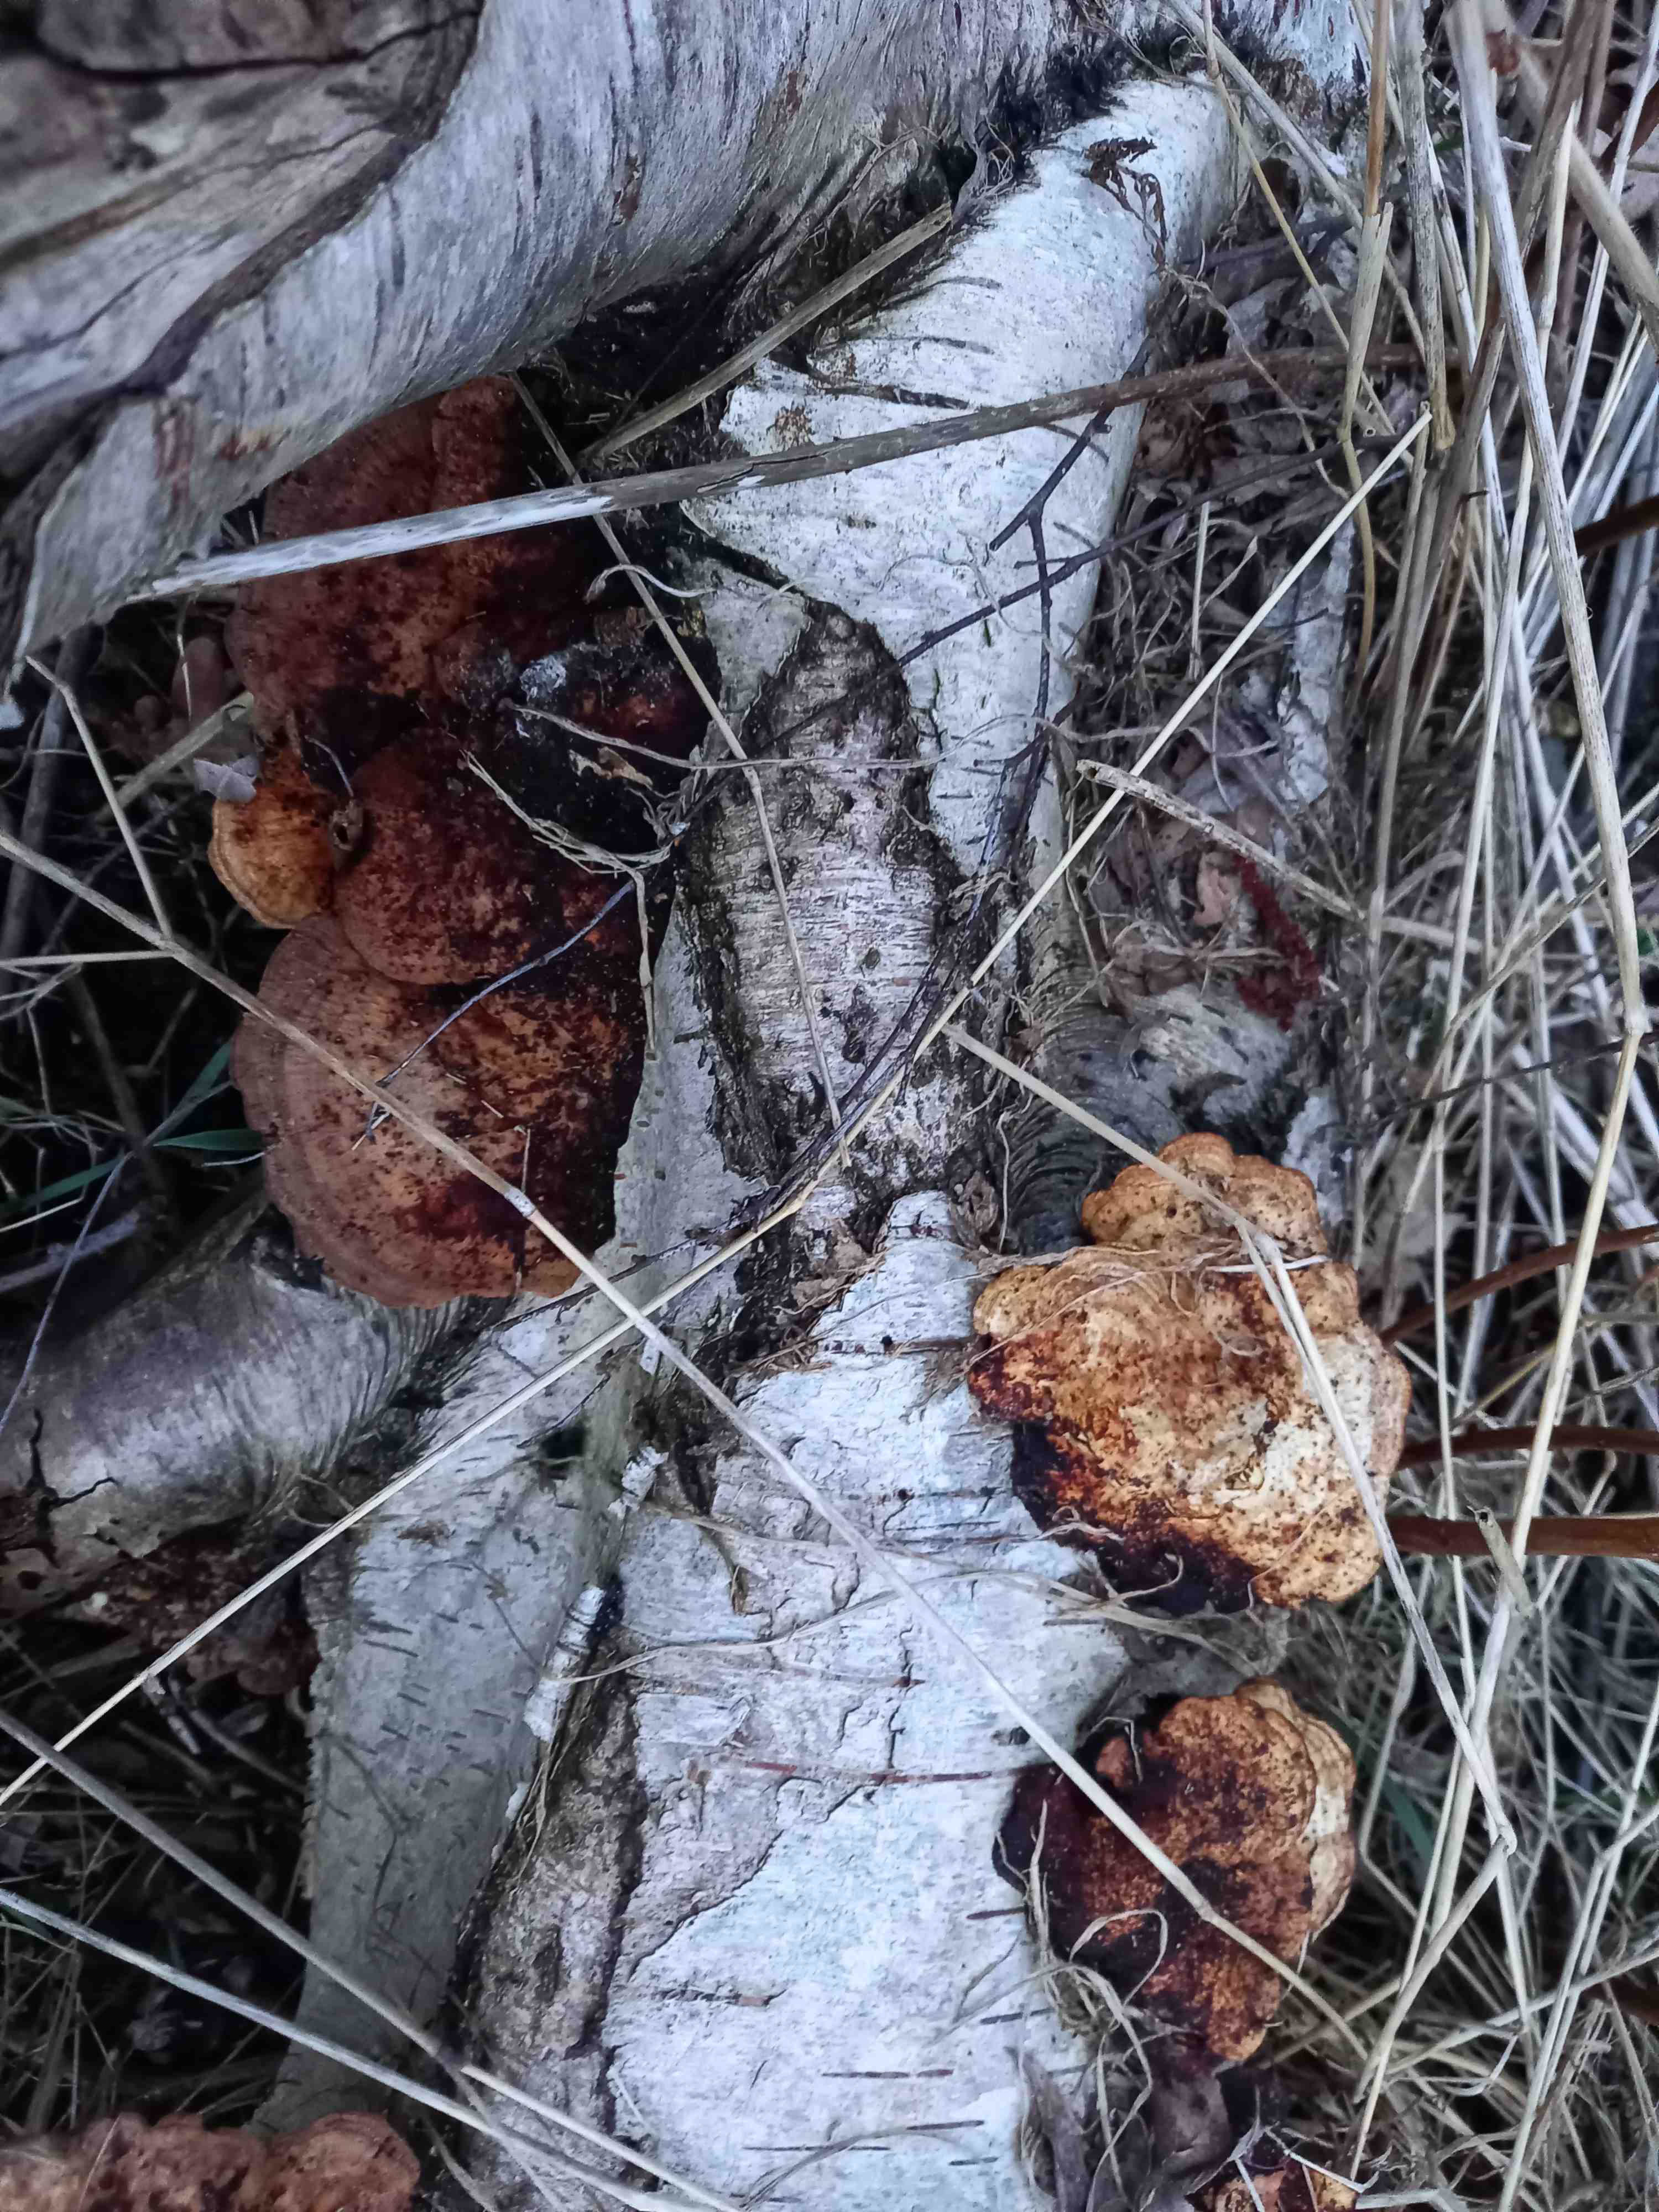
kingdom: Fungi
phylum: Basidiomycota
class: Agaricomycetes
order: Polyporales
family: Polyporaceae
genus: Daedaleopsis
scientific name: Daedaleopsis confragosa
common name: rødmende læderporesvamp
